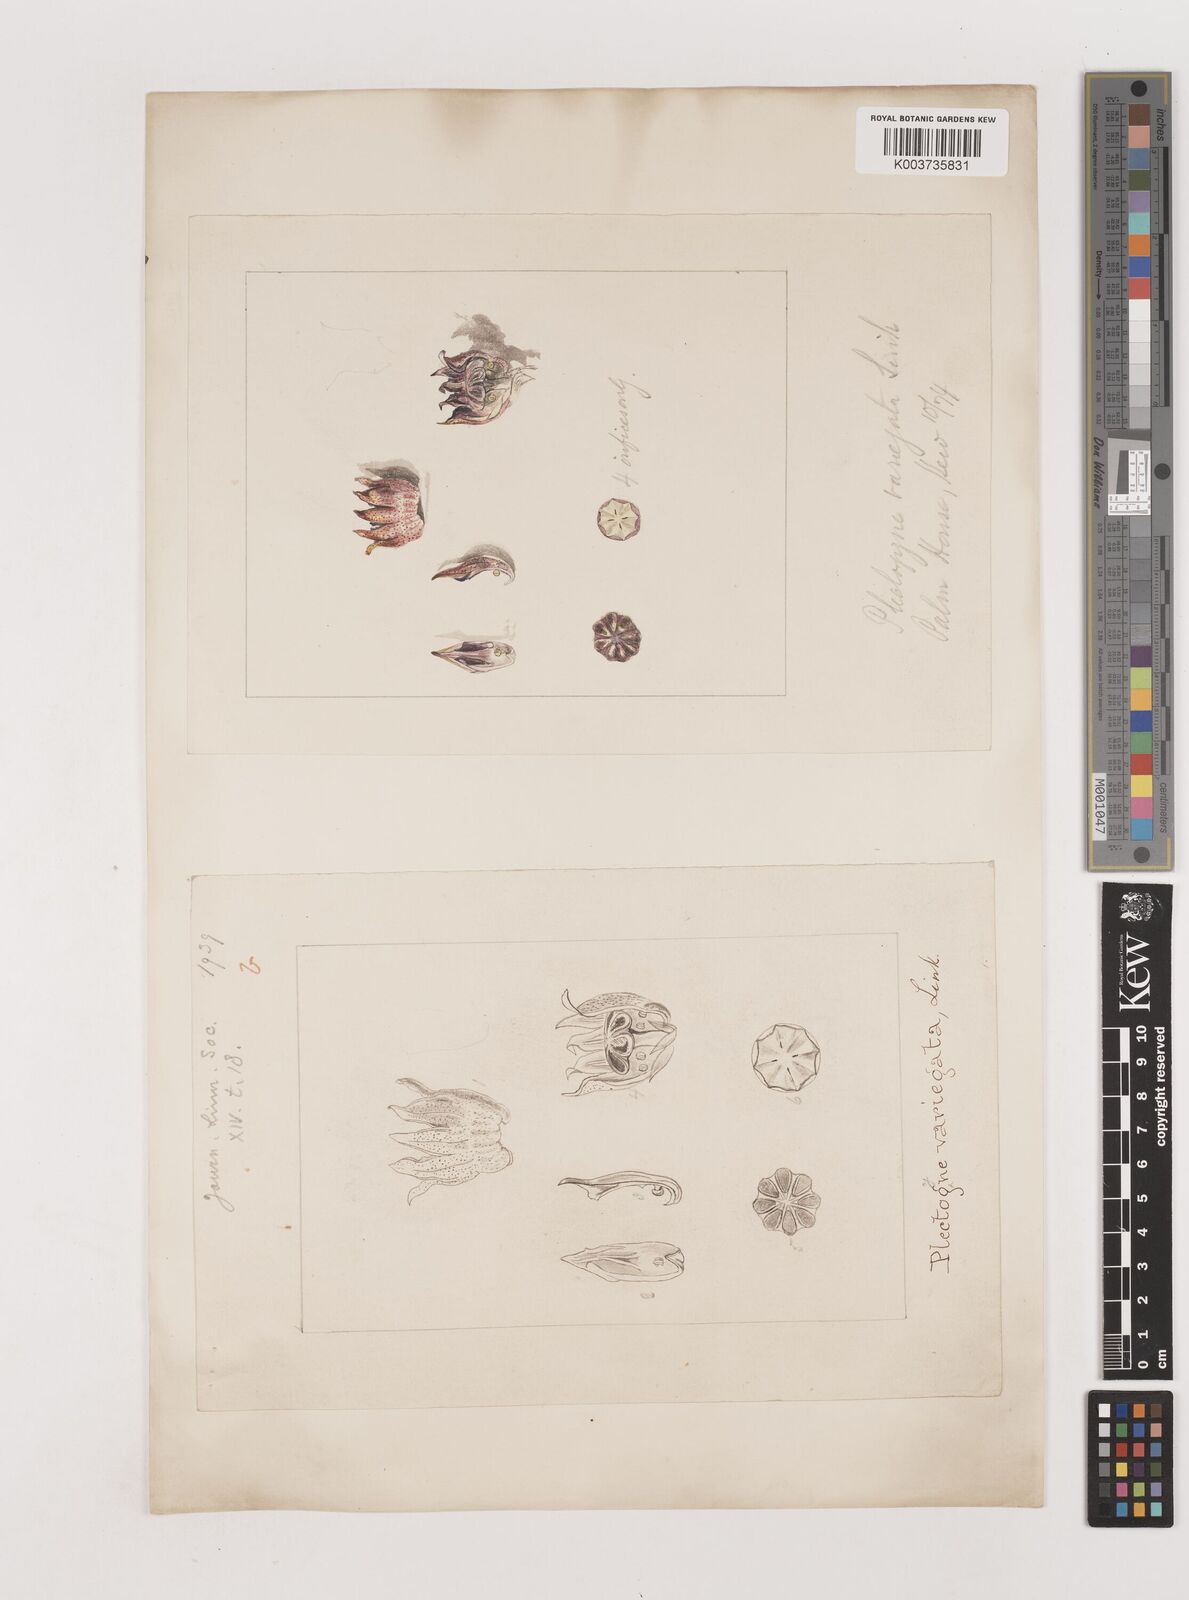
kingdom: Plantae
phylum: Tracheophyta
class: Liliopsida
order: Asparagales
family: Asparagaceae
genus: Aspidistra
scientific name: Aspidistra lurida
